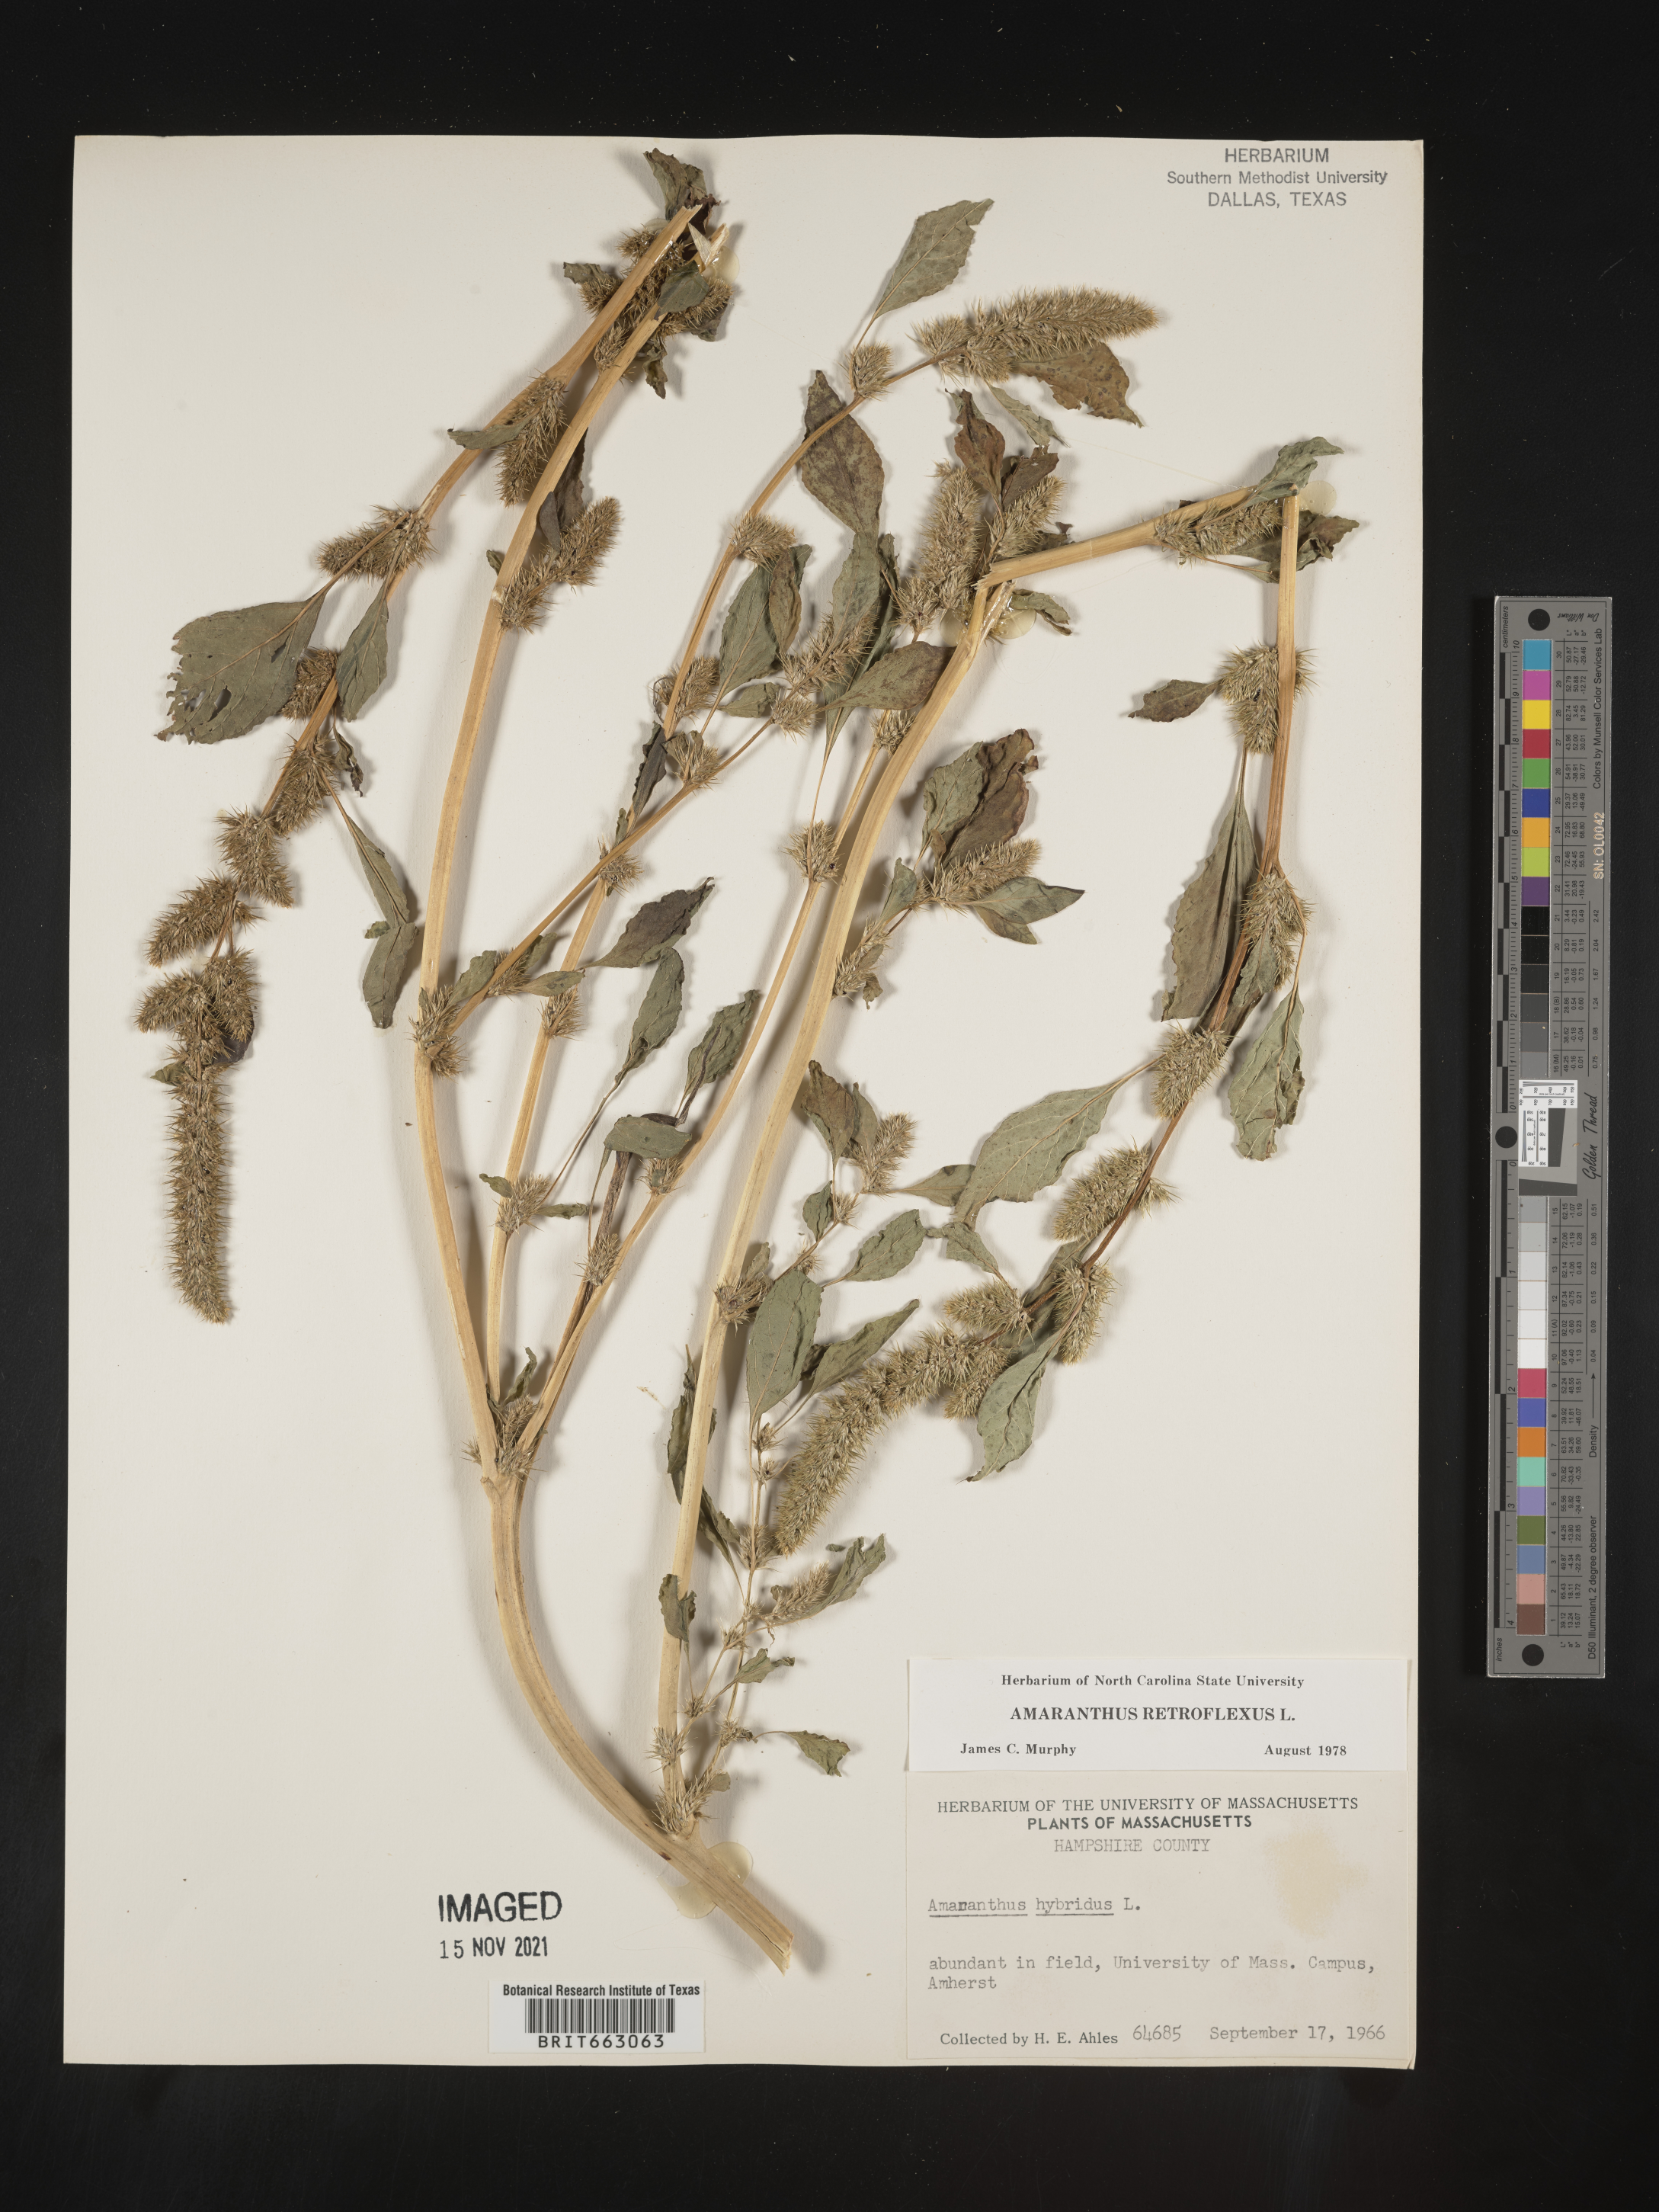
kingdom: Plantae
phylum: Tracheophyta
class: Magnoliopsida
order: Caryophyllales
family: Amaranthaceae
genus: Amaranthus
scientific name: Amaranthus retroflexus
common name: Redroot amaranth
